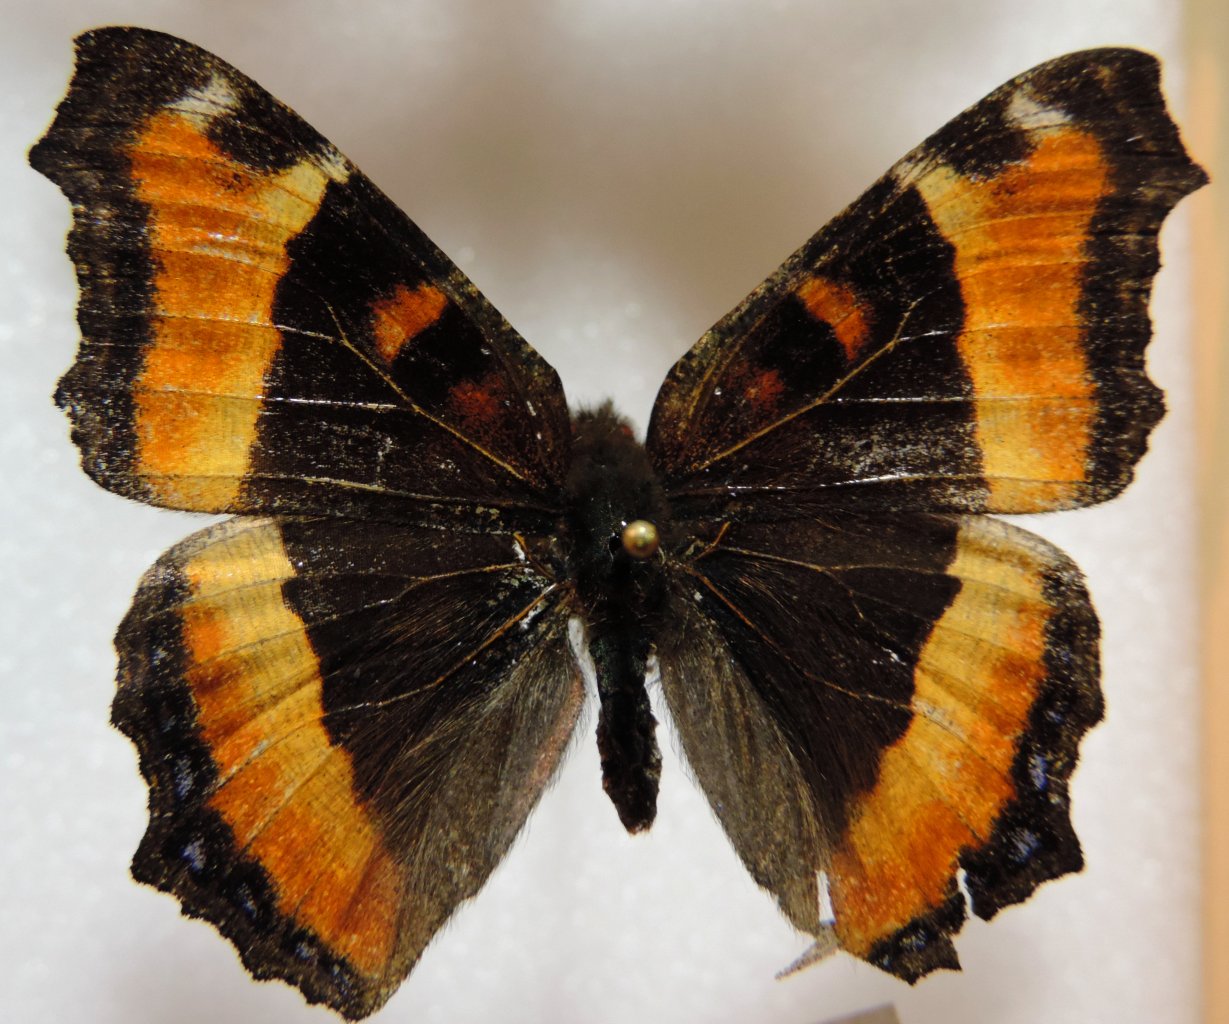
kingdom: Animalia
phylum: Arthropoda
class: Insecta
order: Lepidoptera
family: Nymphalidae
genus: Aglais
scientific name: Aglais milberti
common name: Milbert's Tortoiseshell
